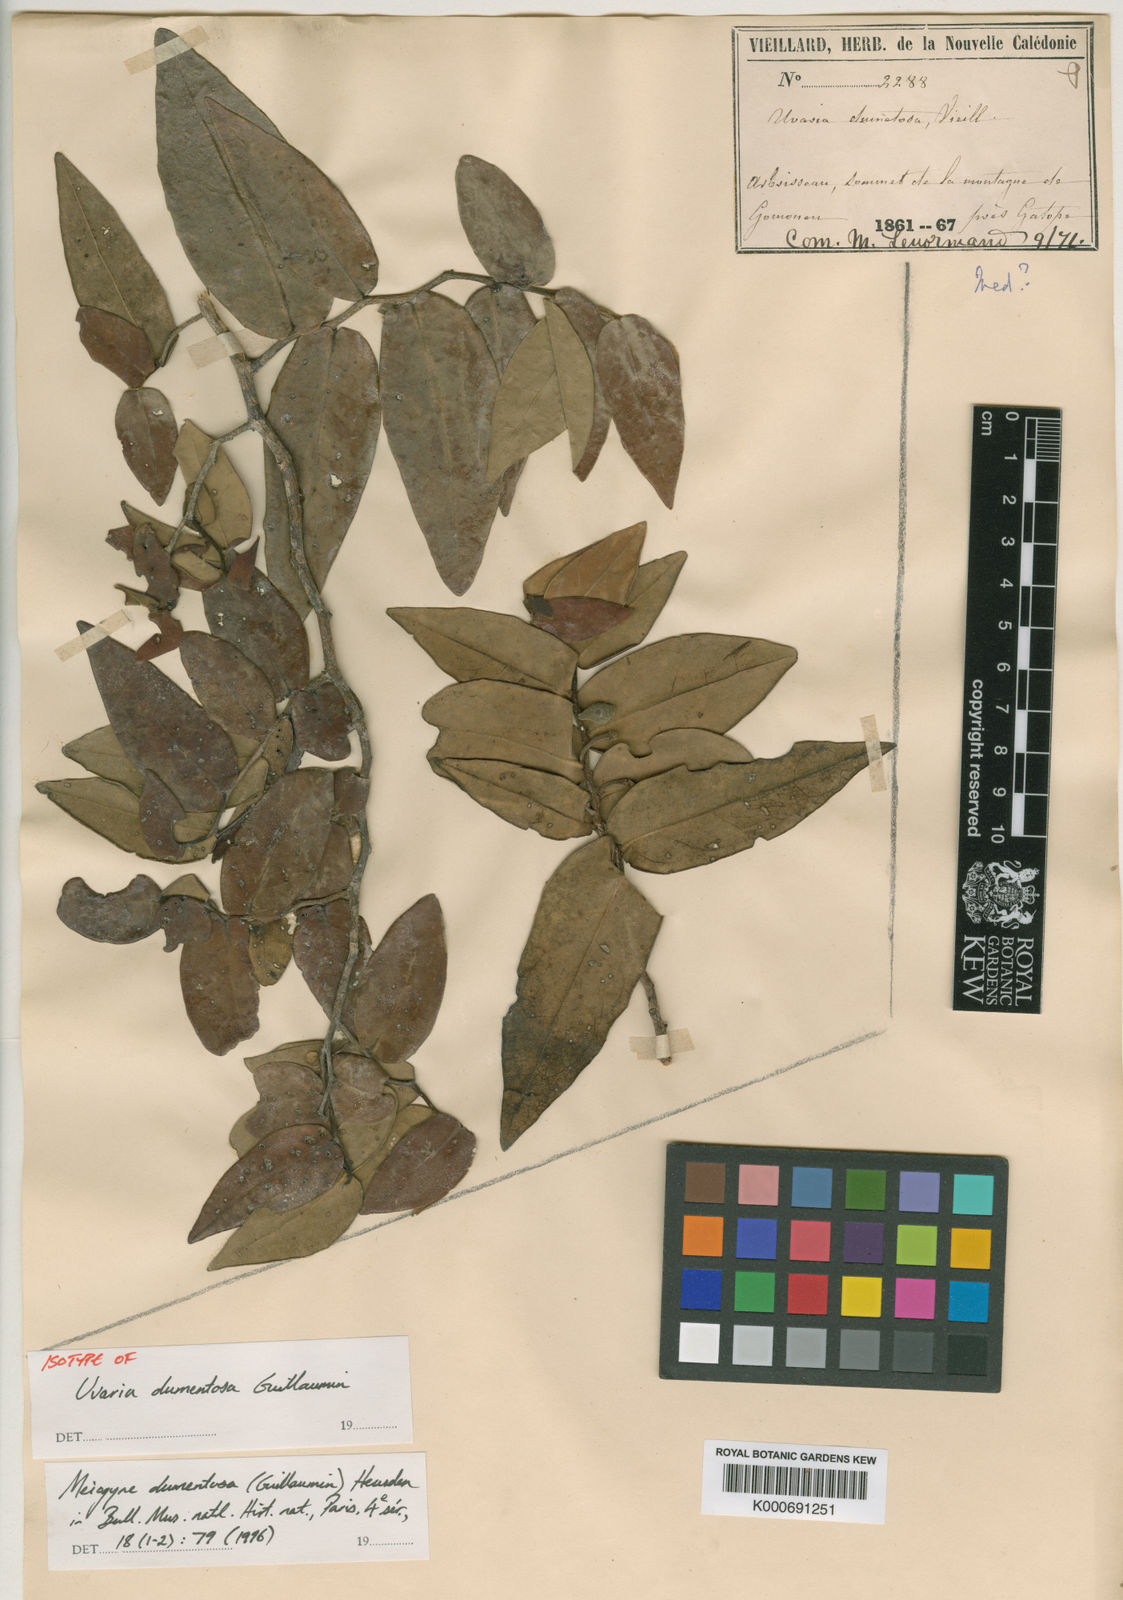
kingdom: Plantae
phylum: Tracheophyta
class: Magnoliopsida
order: Magnoliales
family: Annonaceae
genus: Meiogyne
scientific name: Meiogyne dumetosa
